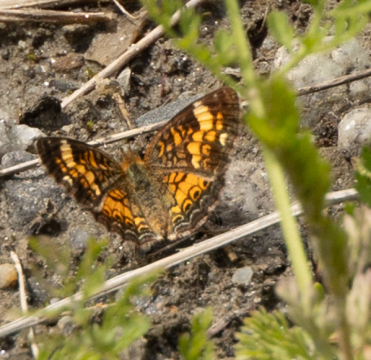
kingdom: Animalia
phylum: Arthropoda
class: Insecta
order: Lepidoptera
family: Nymphalidae
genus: Phyciodes
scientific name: Phyciodes
